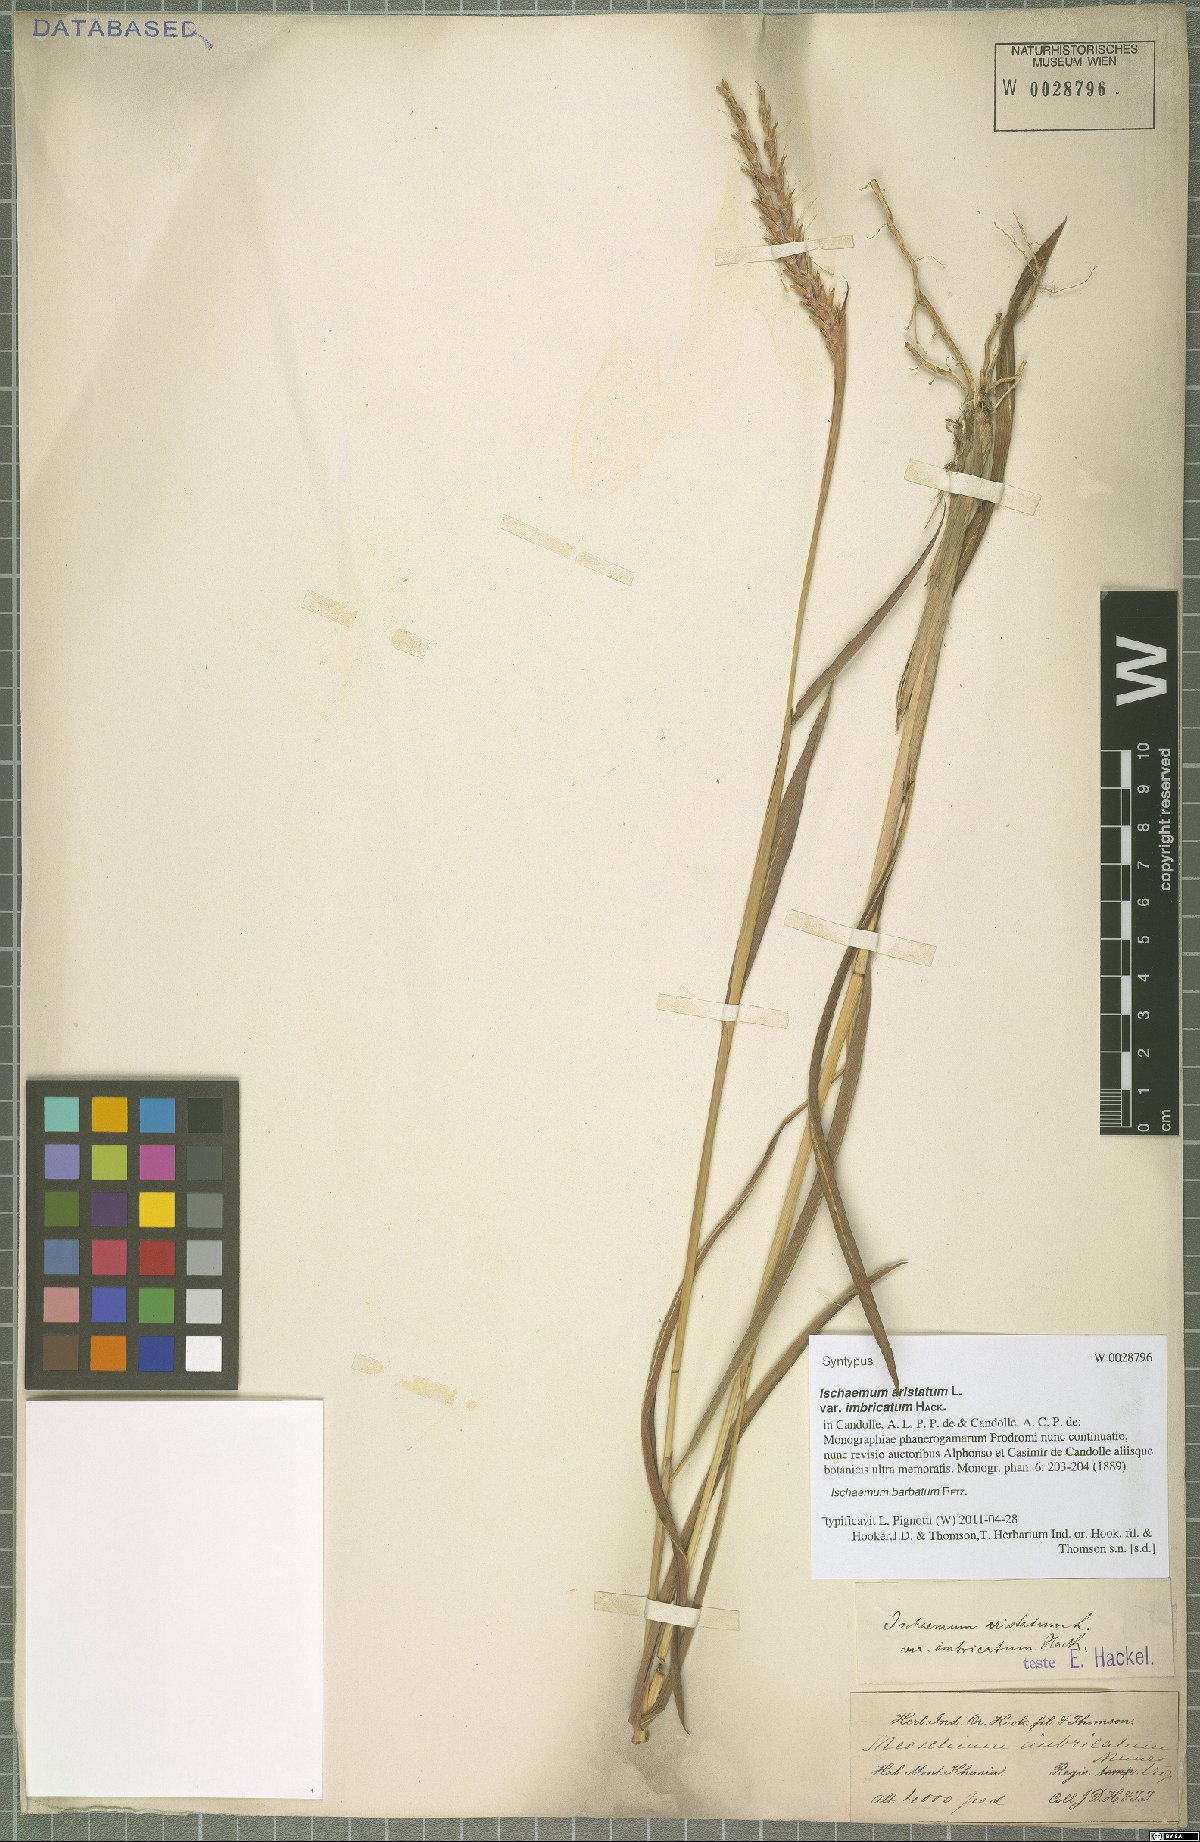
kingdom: Plantae
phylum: Tracheophyta
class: Liliopsida
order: Poales
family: Poaceae
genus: Ischaemum
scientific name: Ischaemum barbatum
